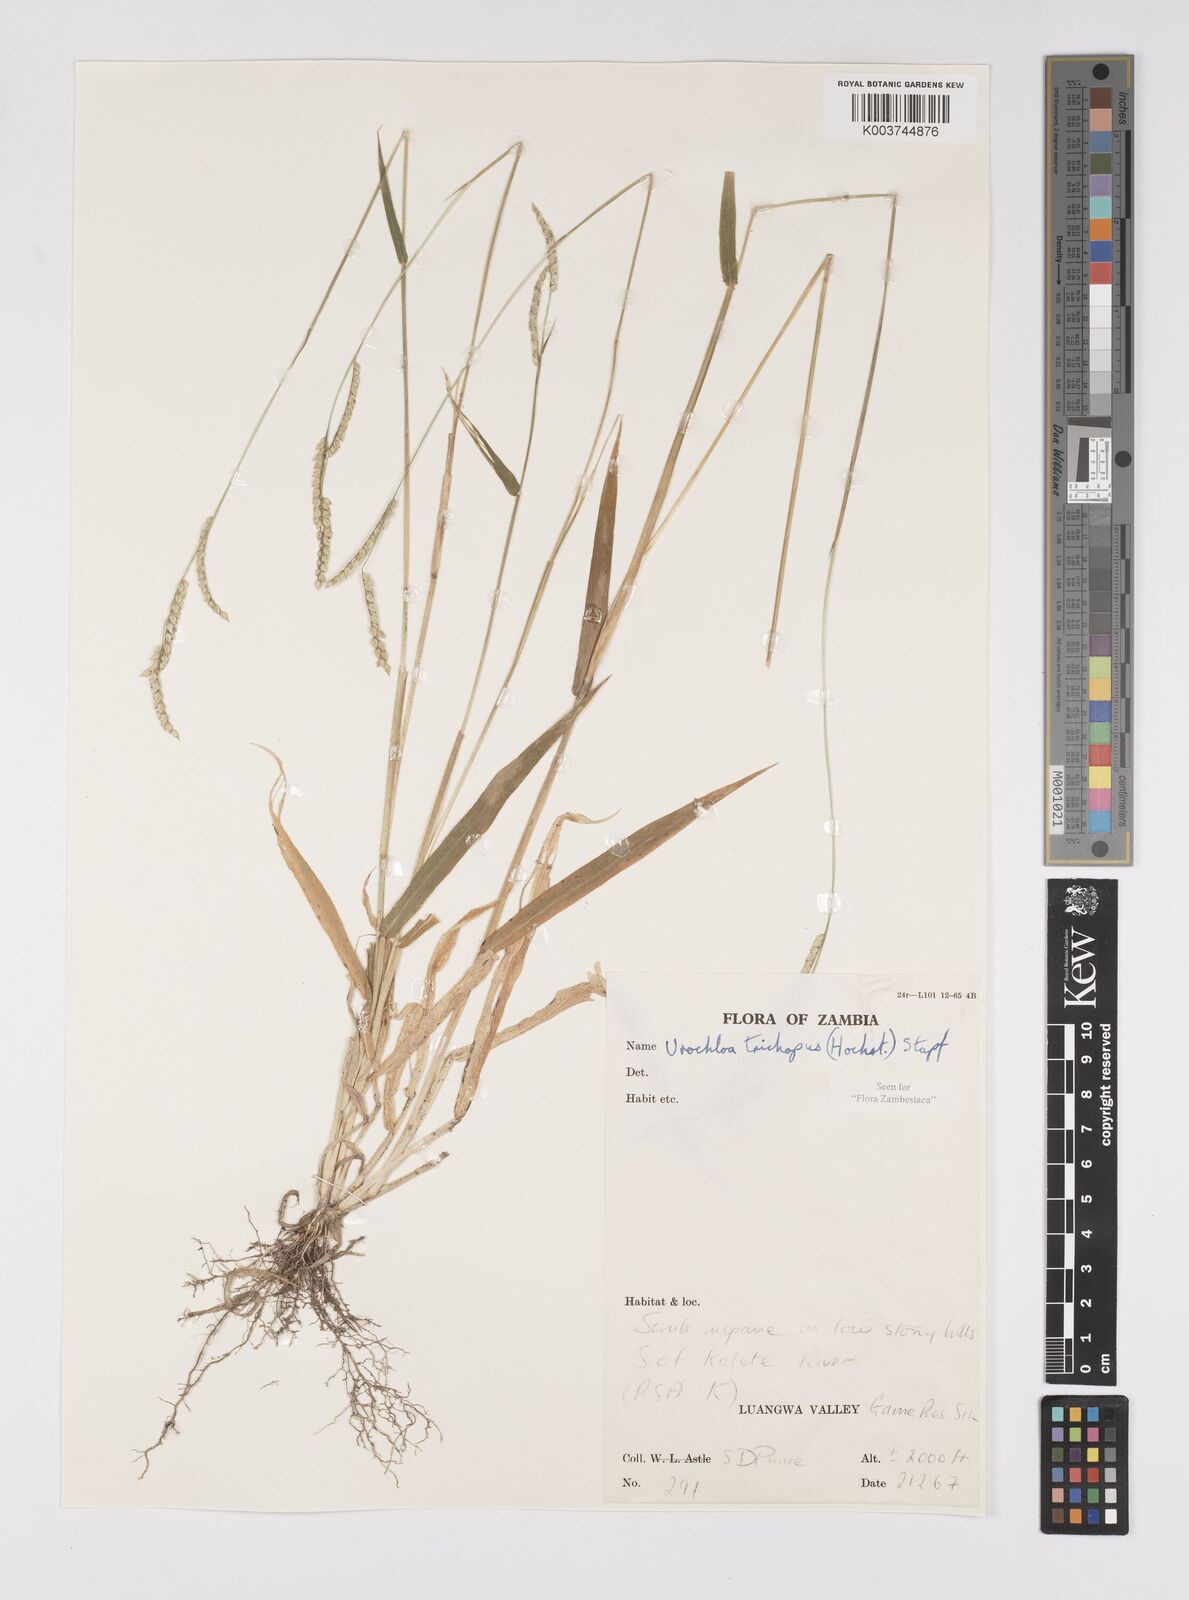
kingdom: Plantae
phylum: Tracheophyta
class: Liliopsida
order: Poales
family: Poaceae
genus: Urochloa
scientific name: Urochloa trichopus
